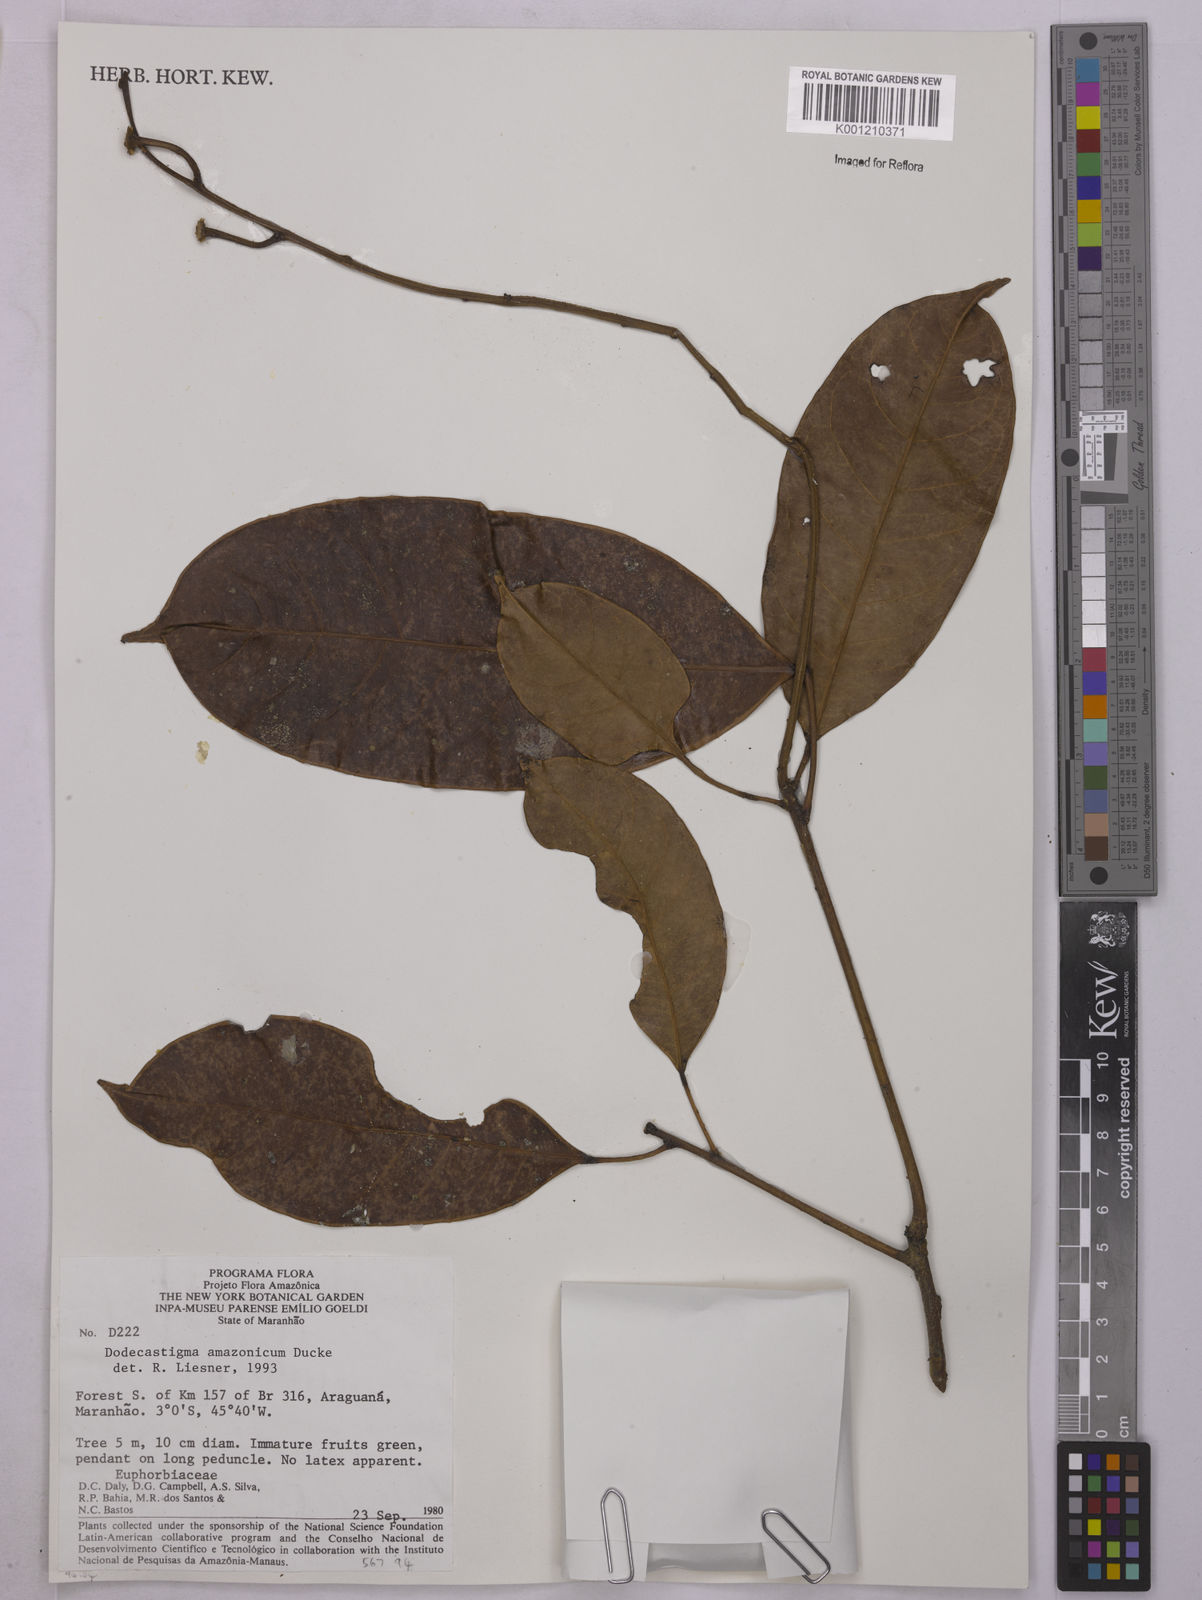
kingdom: Plantae
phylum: Tracheophyta
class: Magnoliopsida
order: Malpighiales
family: Euphorbiaceae
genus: Dodecastigma
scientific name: Dodecastigma amazonicum
